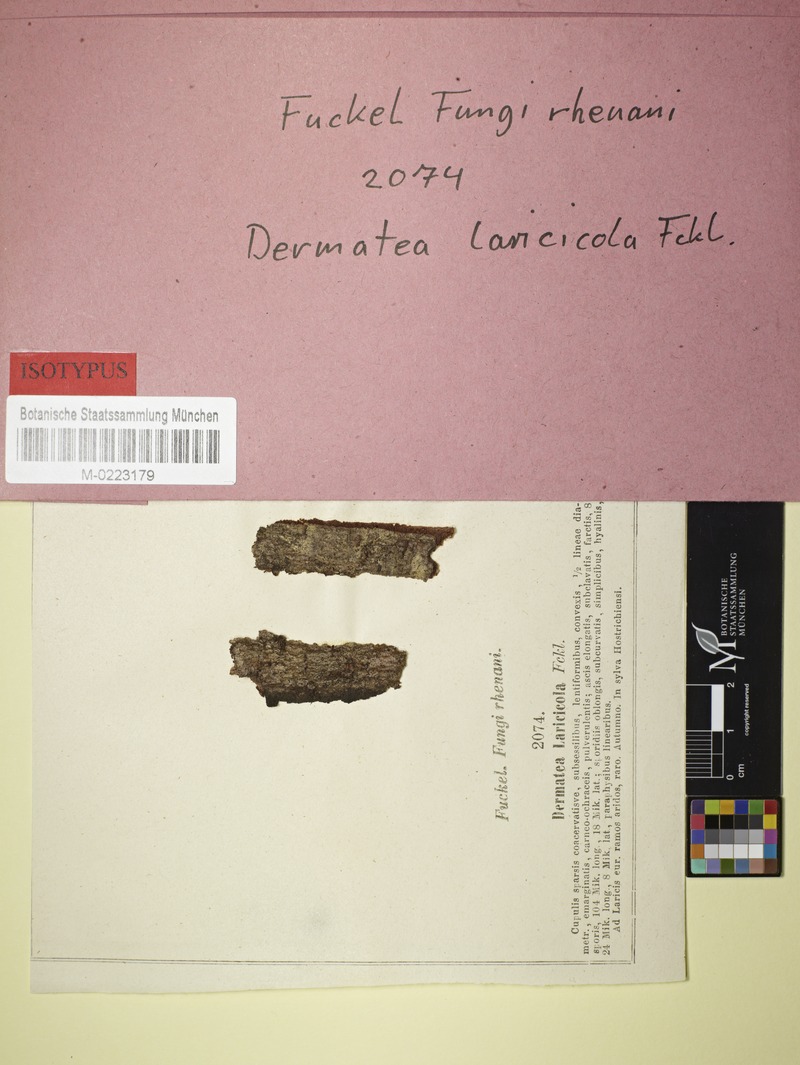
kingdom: Fungi
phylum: Ascomycota
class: Leotiomycetes
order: Helotiales
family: Dermateaceae
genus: Dermatea
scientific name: Dermatea
